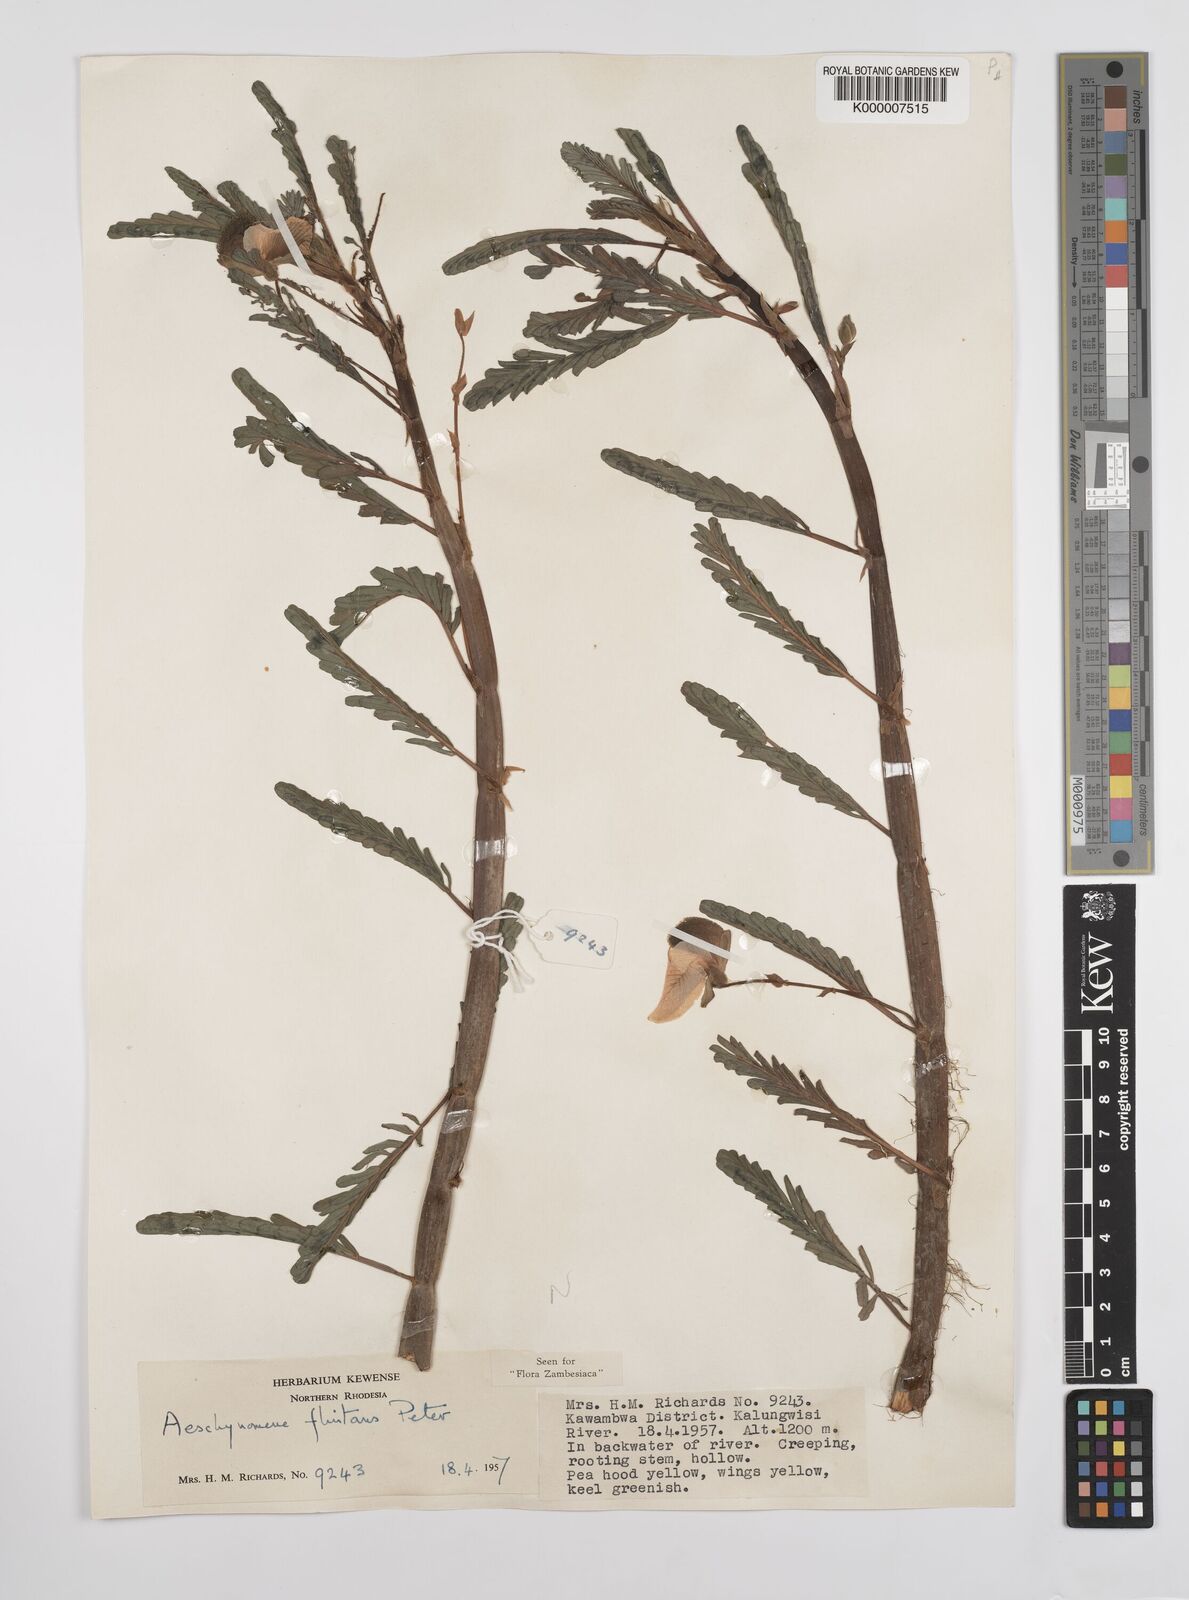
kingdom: Plantae
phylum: Tracheophyta
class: Magnoliopsida
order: Fabales
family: Fabaceae
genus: Aeschynomene
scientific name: Aeschynomene fluitans
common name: Giant water sensitive plant
